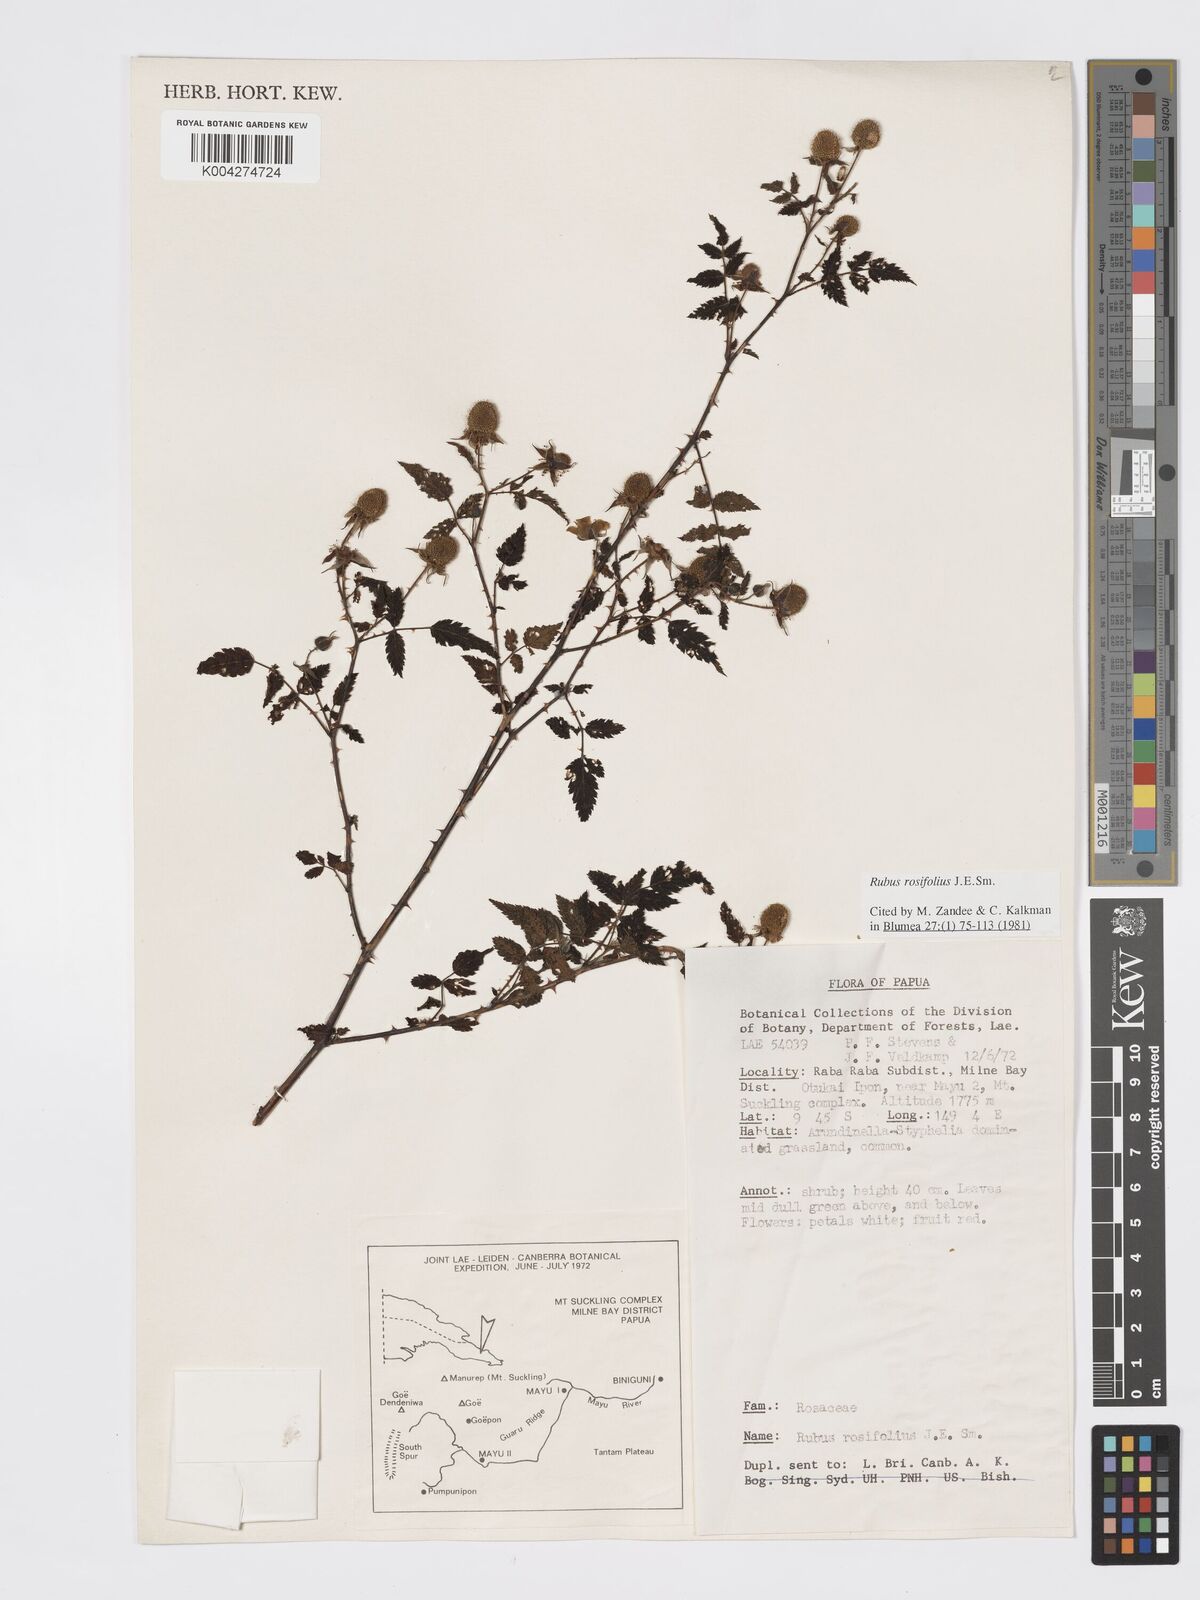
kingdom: Plantae
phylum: Tracheophyta
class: Magnoliopsida
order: Rosales
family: Rosaceae
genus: Rubus
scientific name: Rubus
